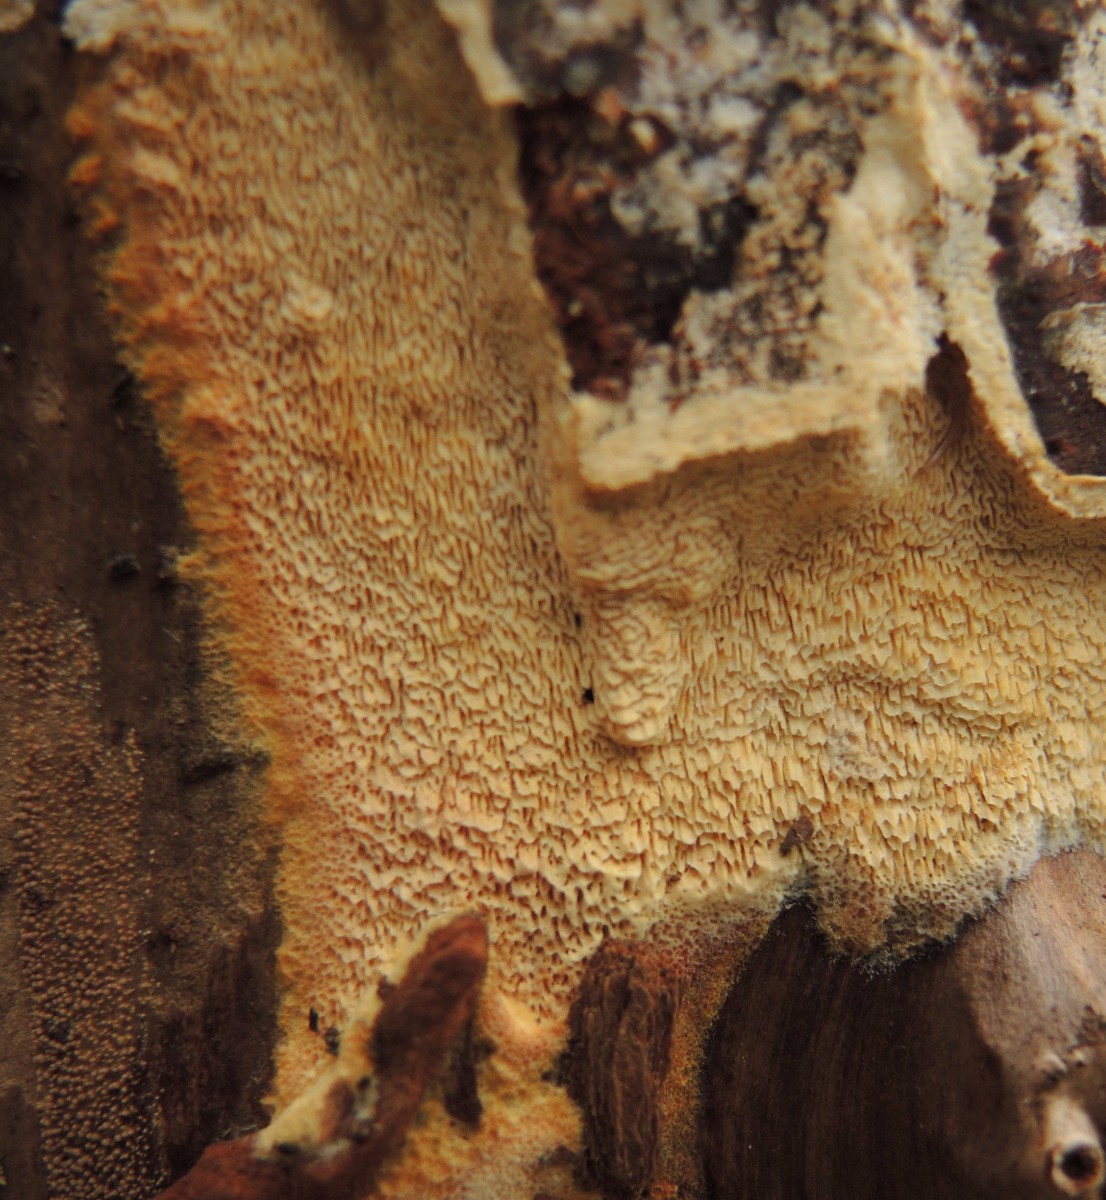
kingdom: Fungi
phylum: Basidiomycota
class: Agaricomycetes
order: Hymenochaetales
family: Schizoporaceae
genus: Xylodon
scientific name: Xylodon subtropicus
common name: labyrint-tandsvamp
